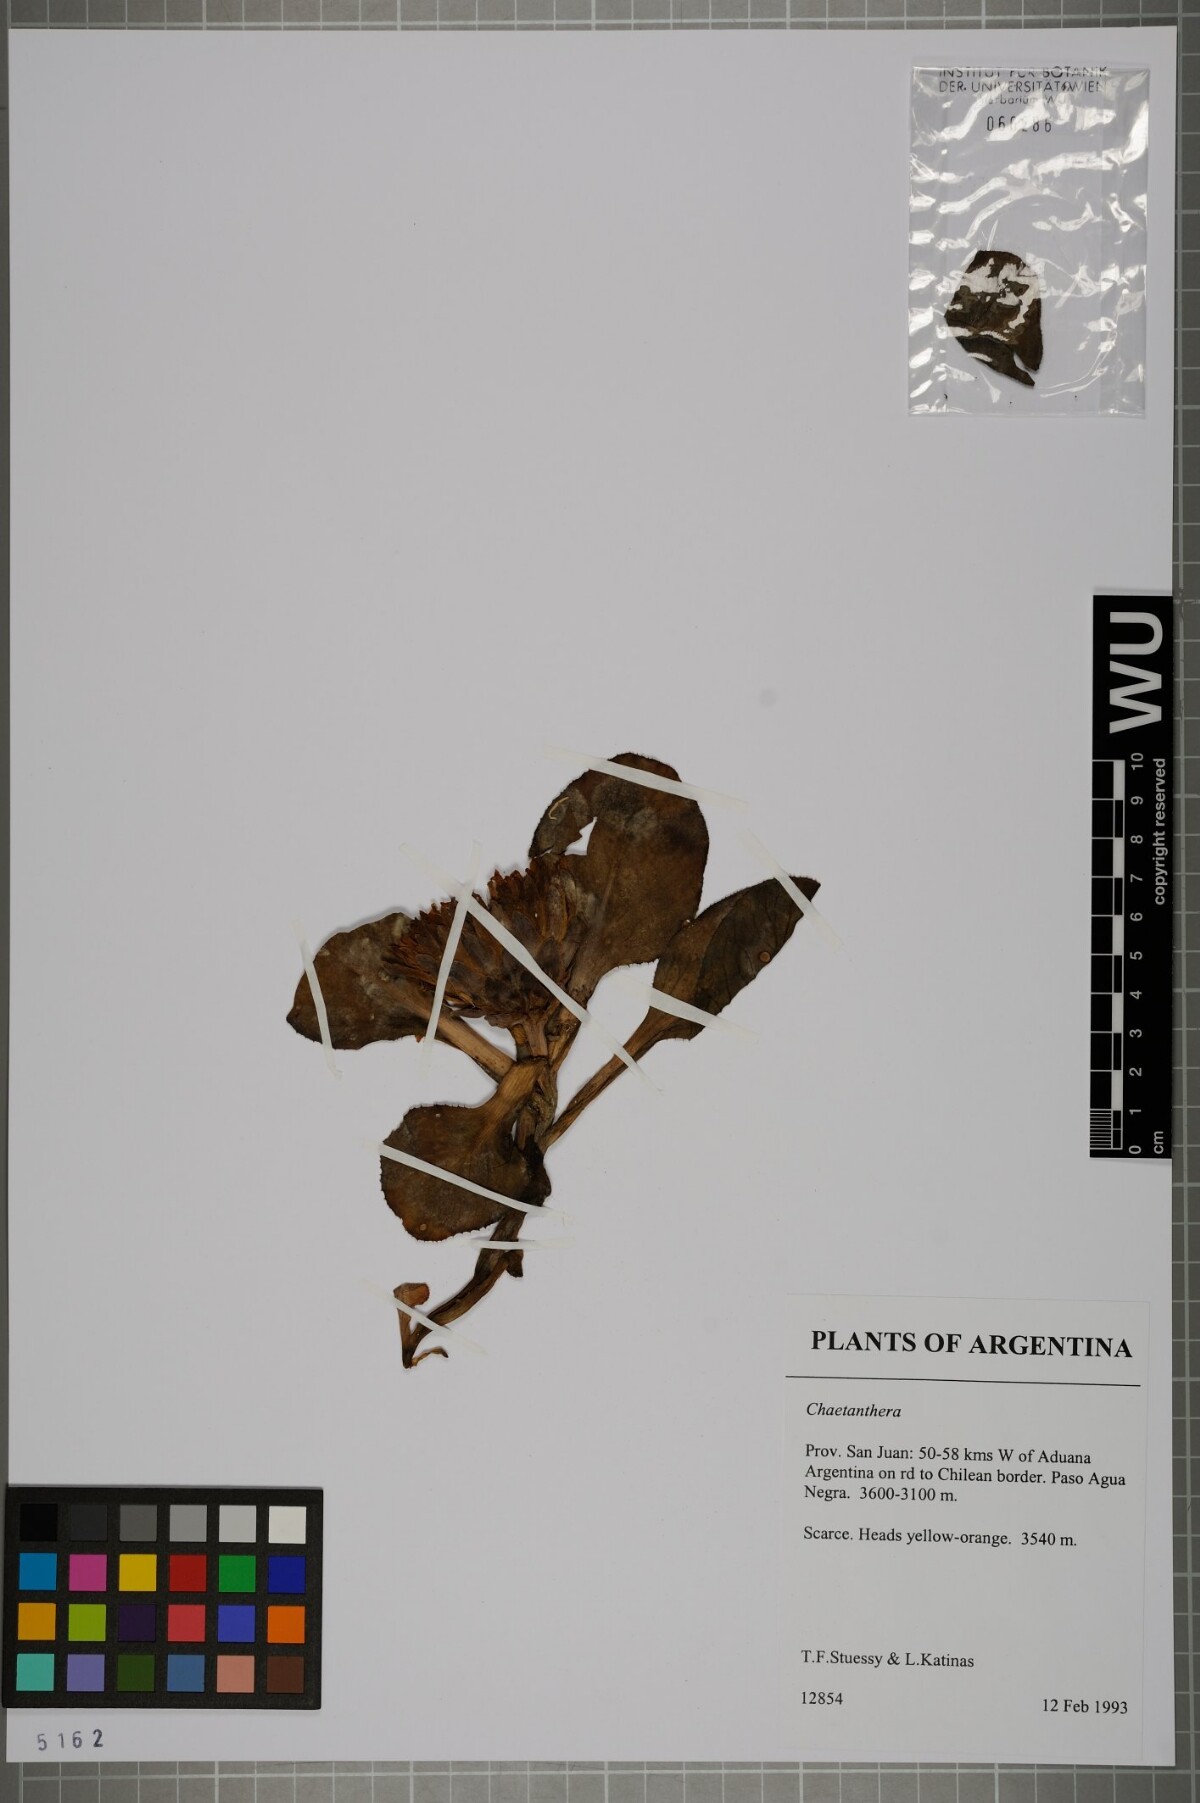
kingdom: Plantae
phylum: Tracheophyta
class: Magnoliopsida
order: Asterales
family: Asteraceae
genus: Chaetanthera
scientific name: Chaetanthera
